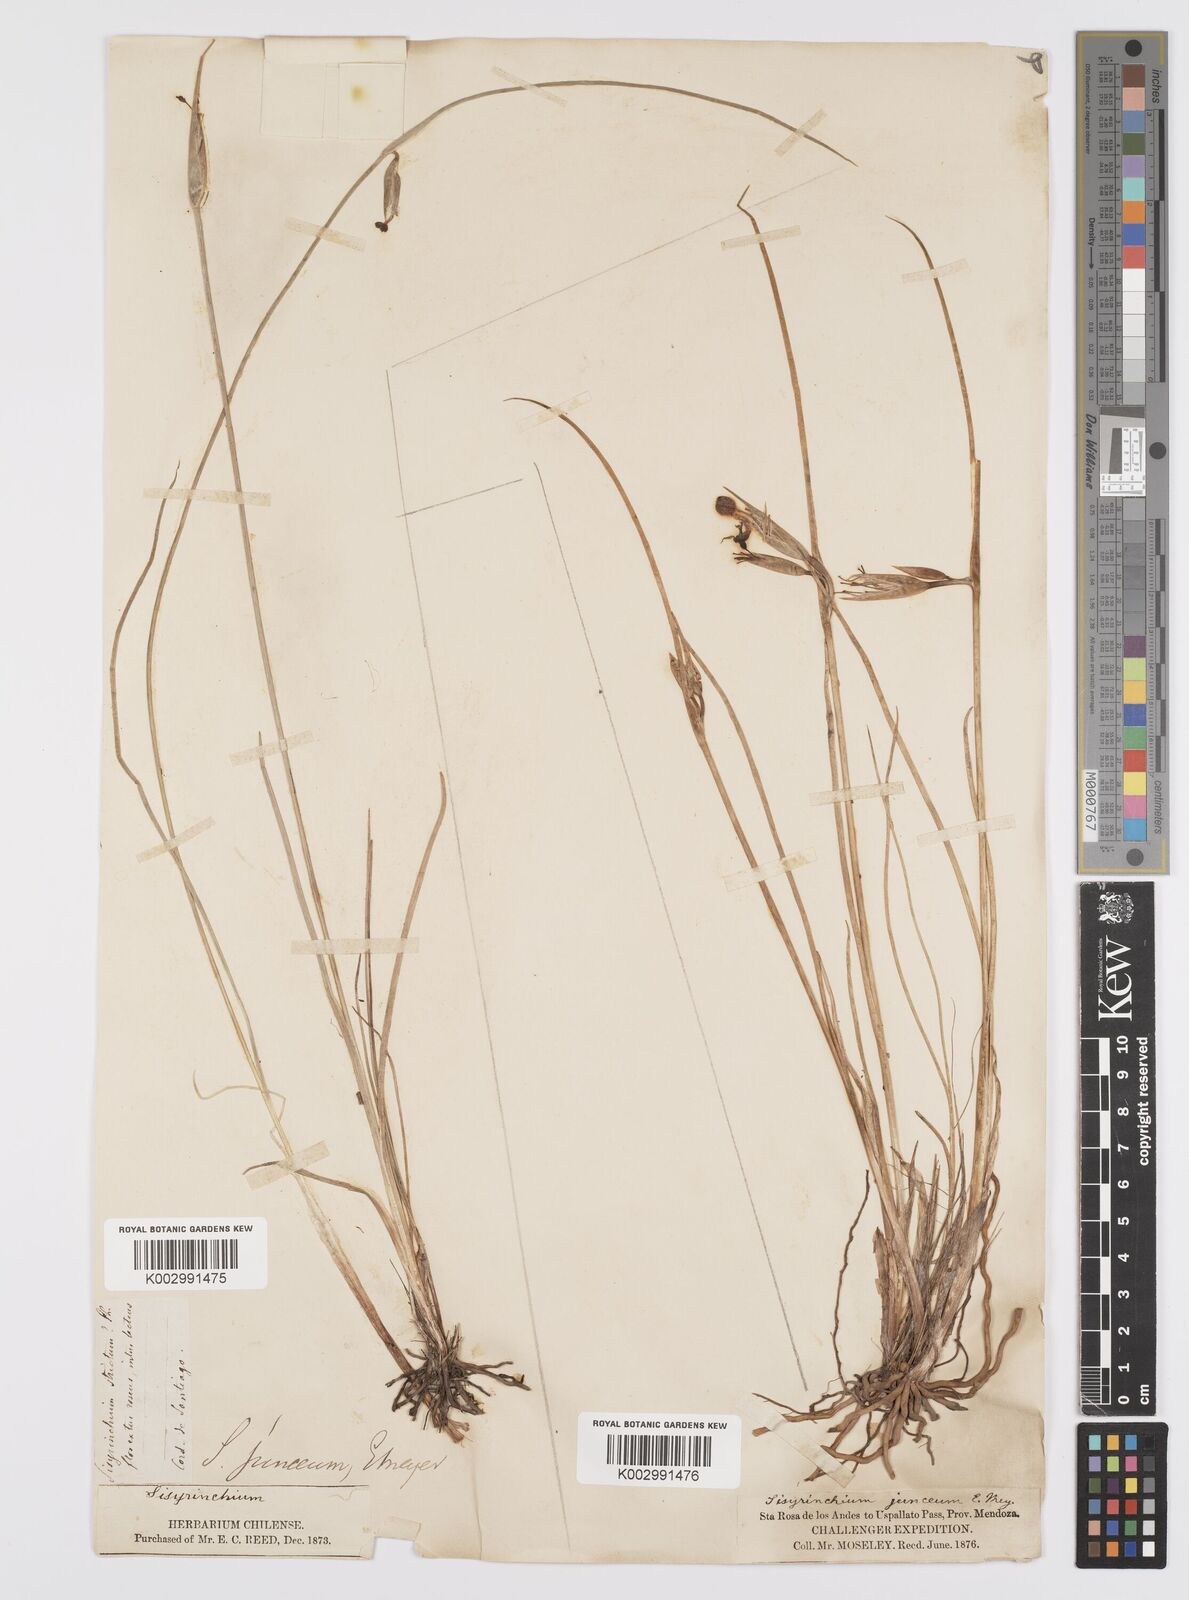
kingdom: Plantae
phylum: Tracheophyta
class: Liliopsida
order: Asparagales
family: Iridaceae
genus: Olsynium
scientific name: Olsynium junceum
